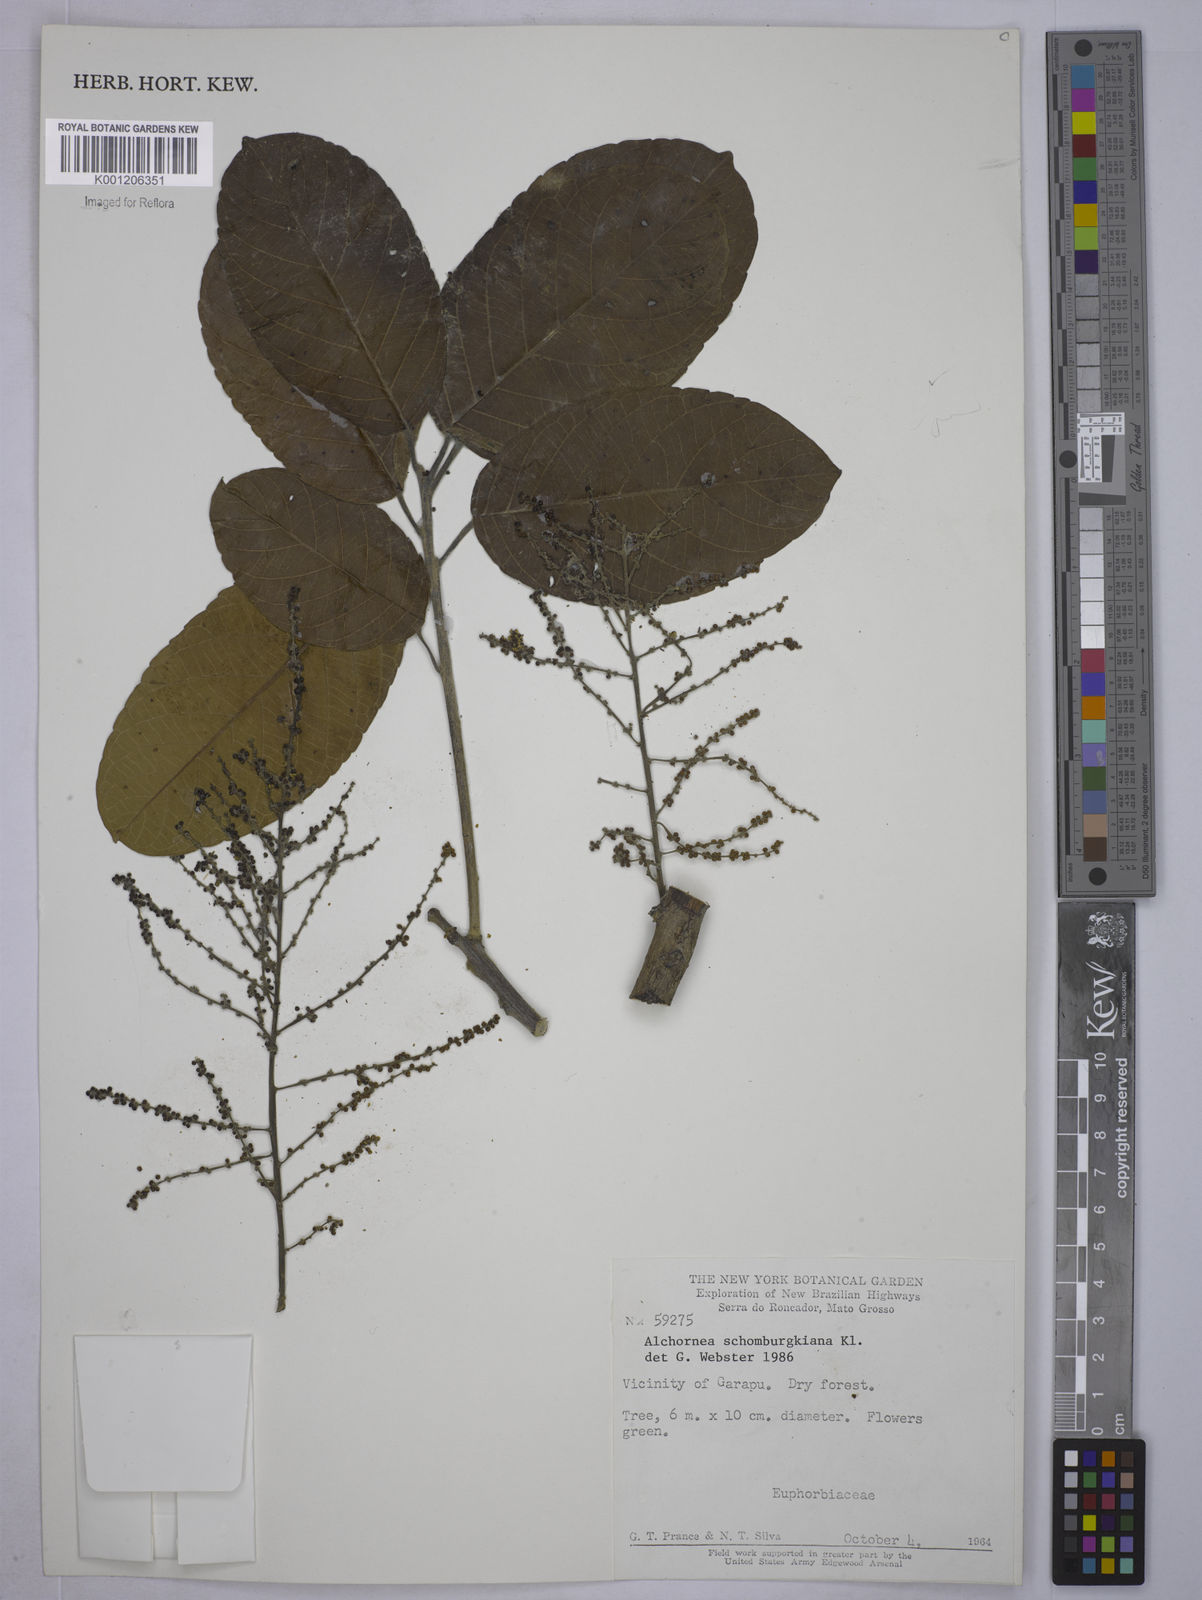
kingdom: Plantae
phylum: Tracheophyta
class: Magnoliopsida
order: Malpighiales
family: Euphorbiaceae
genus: Alchornea
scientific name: Alchornea discolor
